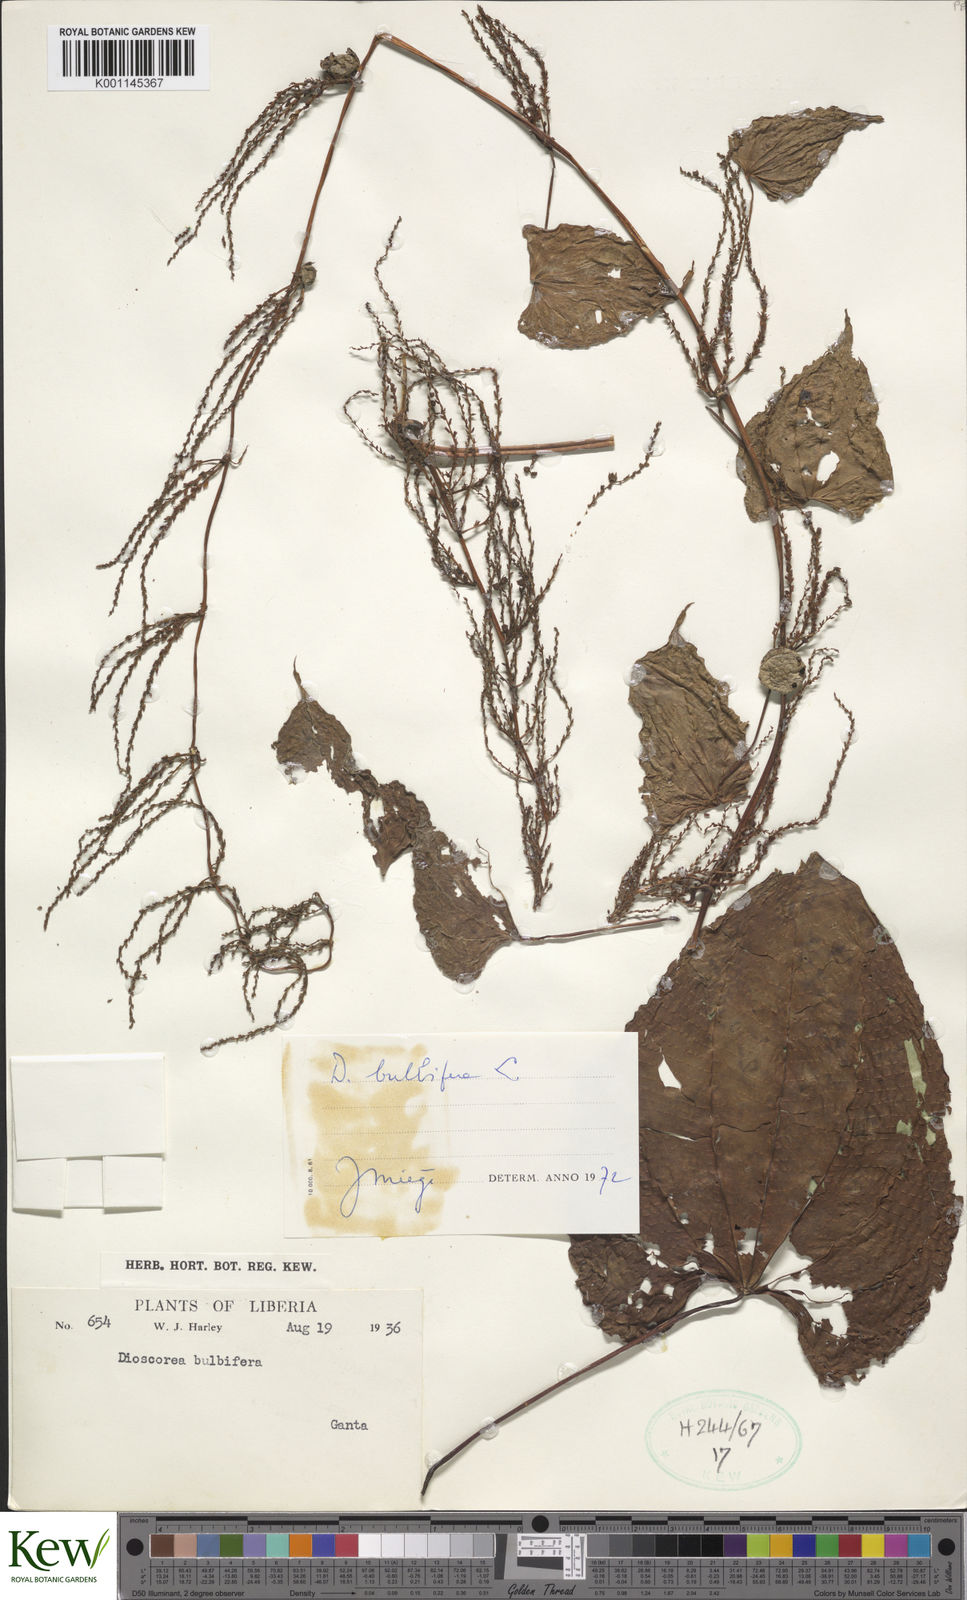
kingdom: Plantae
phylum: Tracheophyta
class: Liliopsida
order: Dioscoreales
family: Dioscoreaceae
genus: Dioscorea
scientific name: Dioscorea bulbifera
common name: Air yam
